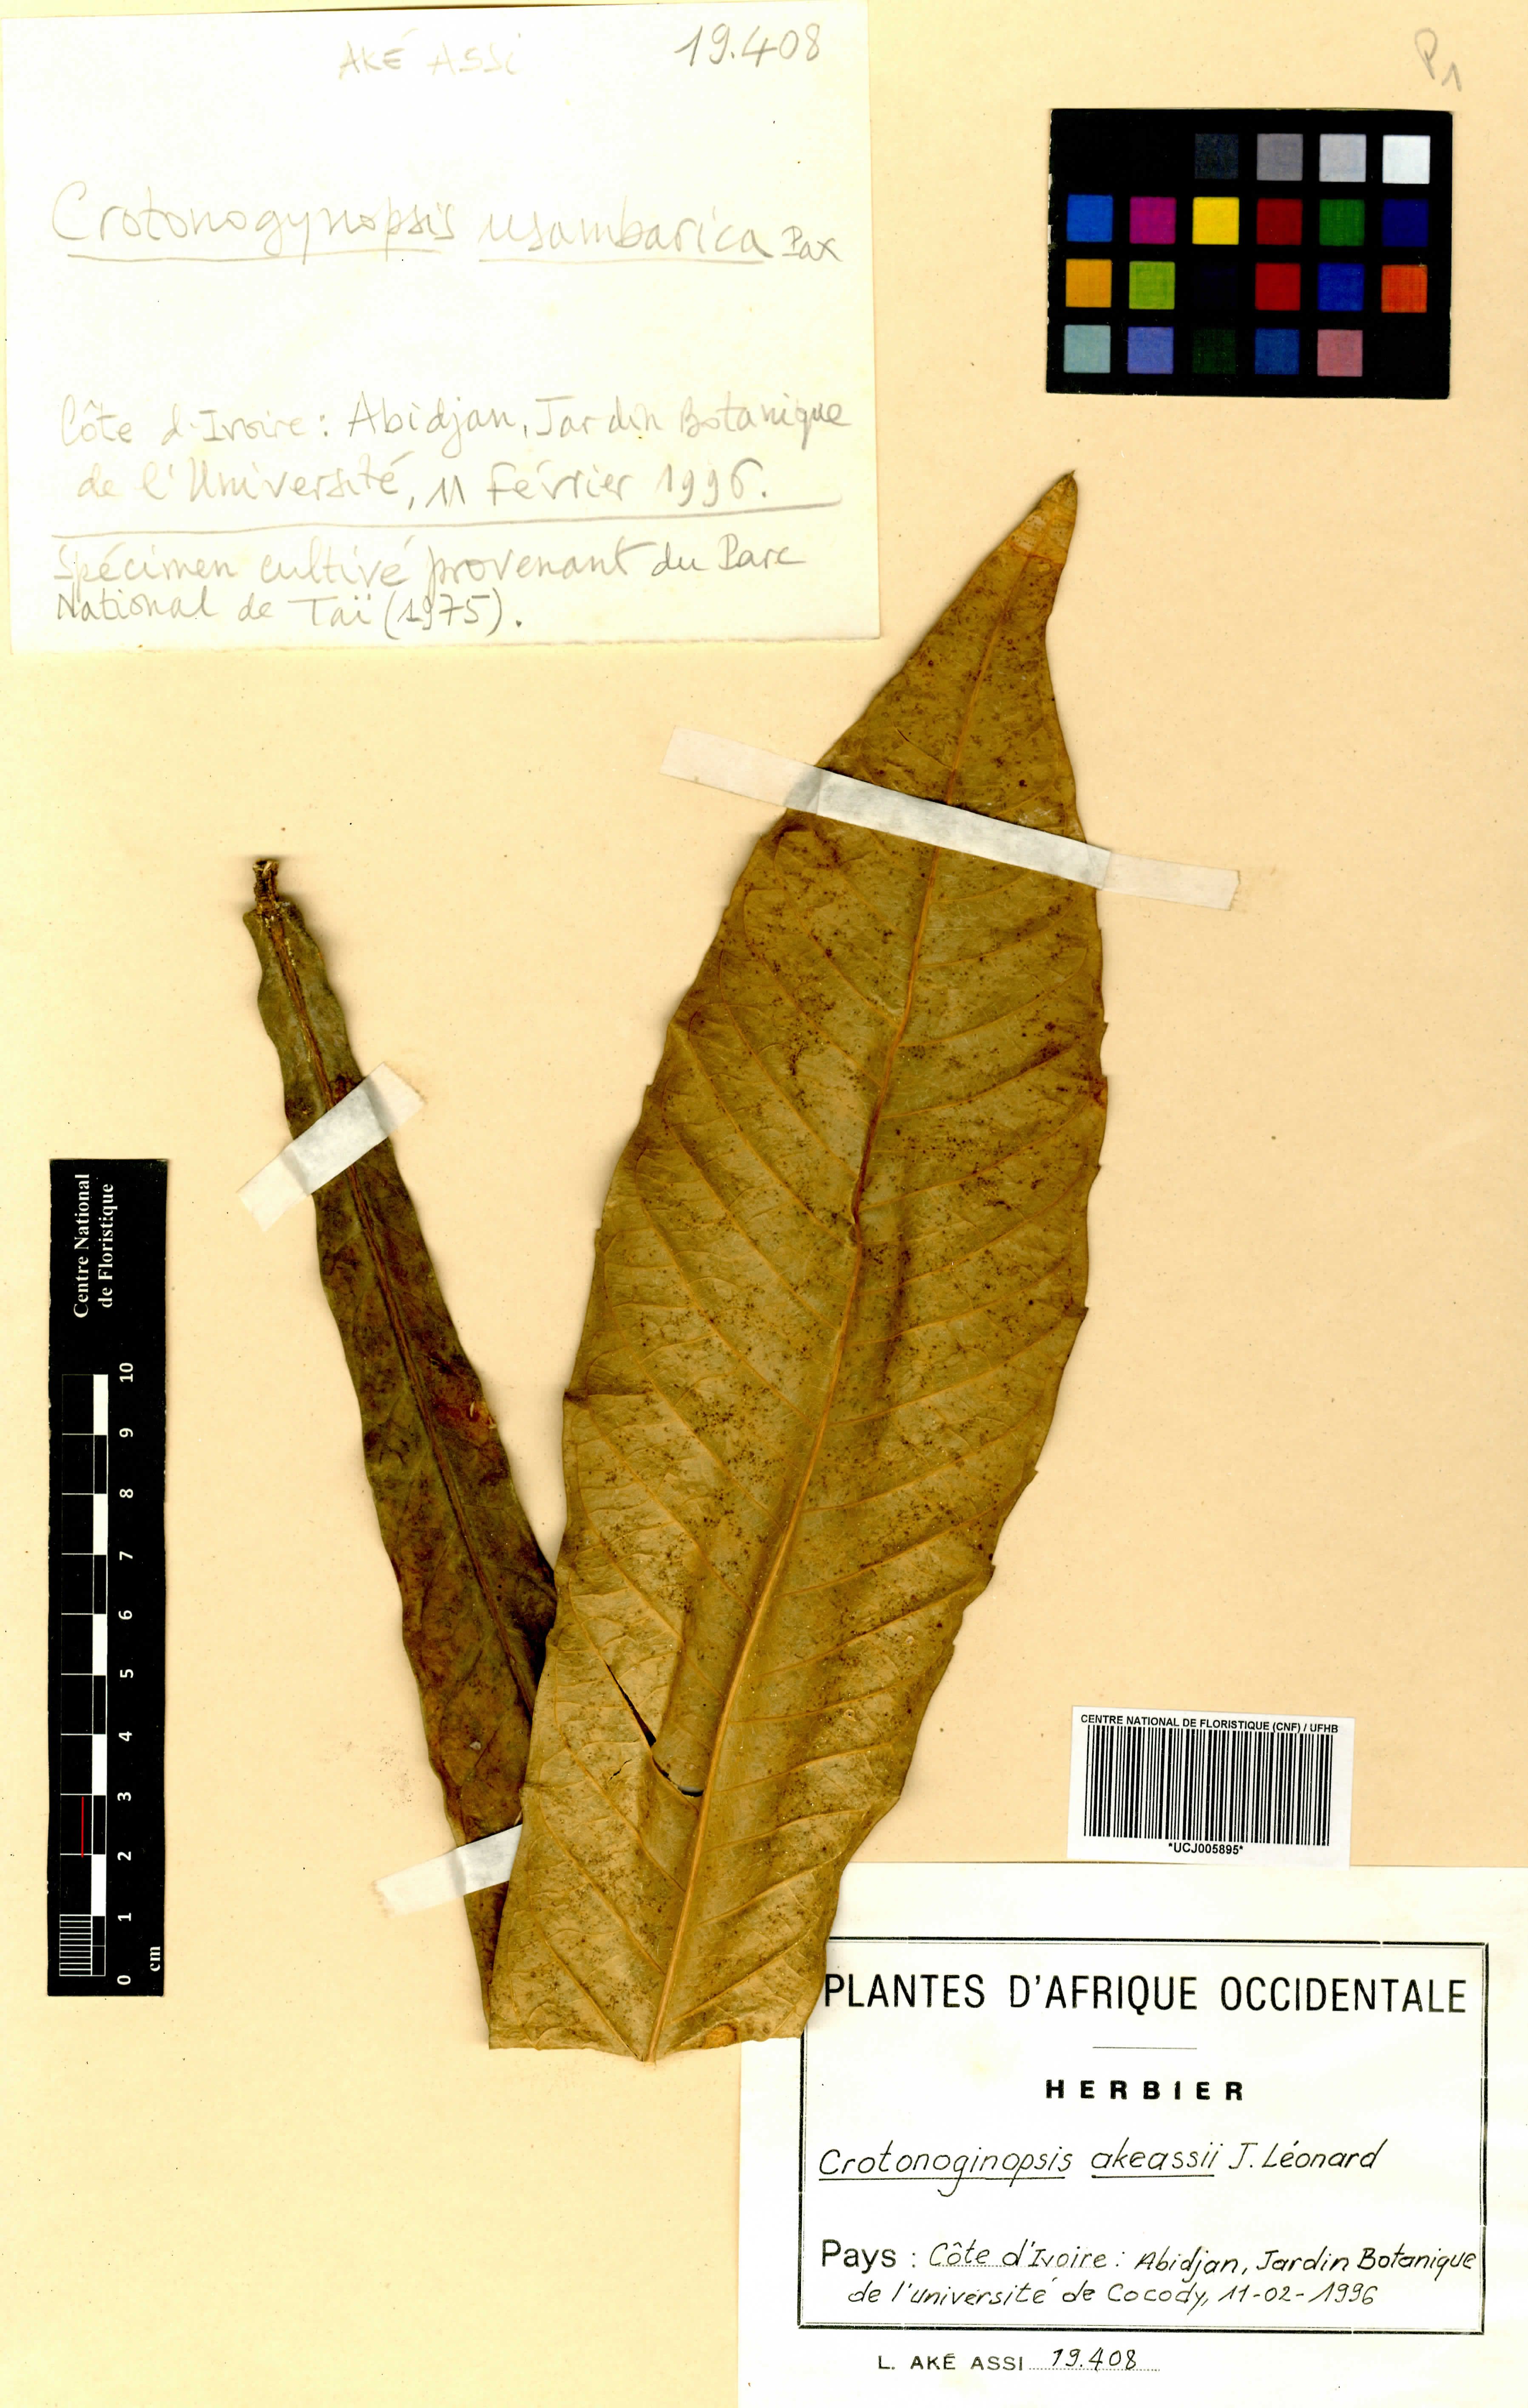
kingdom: Plantae
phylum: Tracheophyta
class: Magnoliopsida
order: Malpighiales
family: Euphorbiaceae
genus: Crotonogynopsis
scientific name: Crotonogynopsis akeassii
